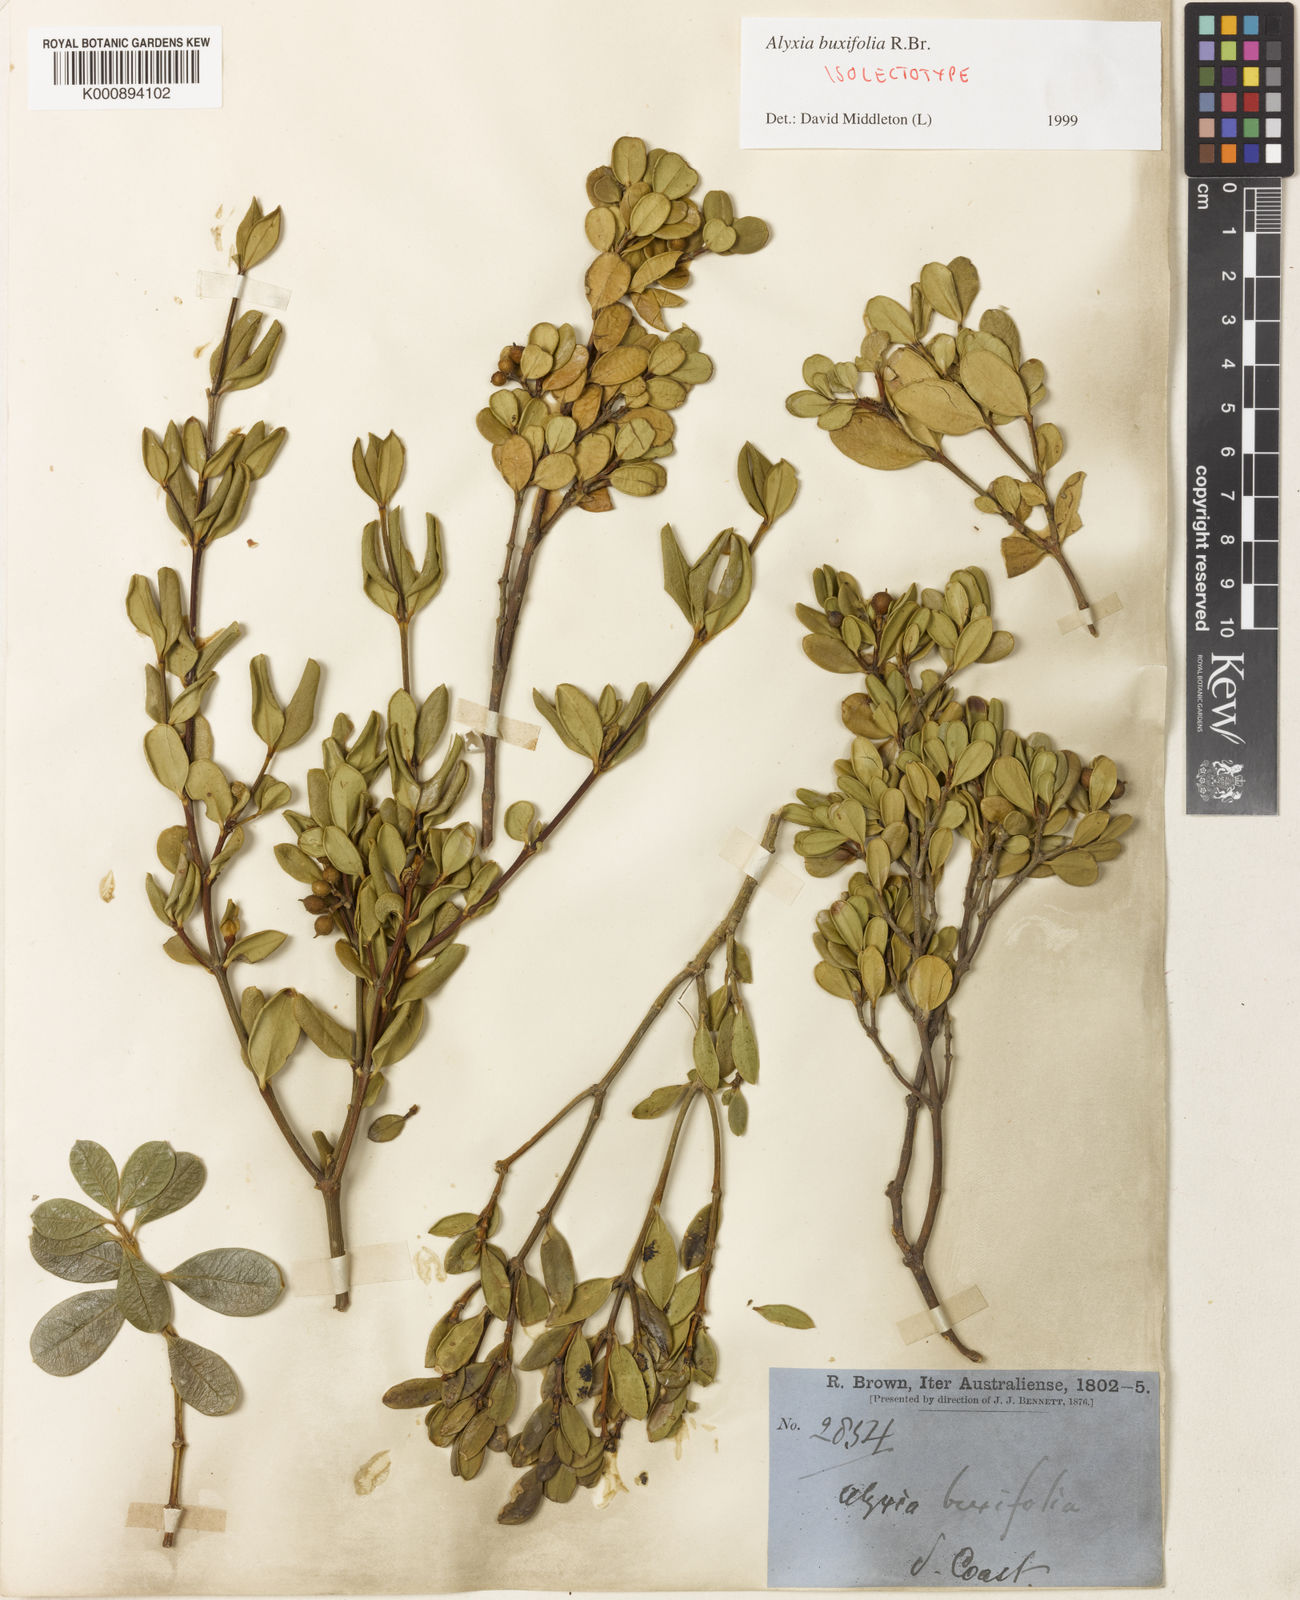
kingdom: Plantae
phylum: Tracheophyta
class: Magnoliopsida
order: Gentianales
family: Apocynaceae
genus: Alyxia
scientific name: Alyxia buxifolia
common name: Dysentery-bush
